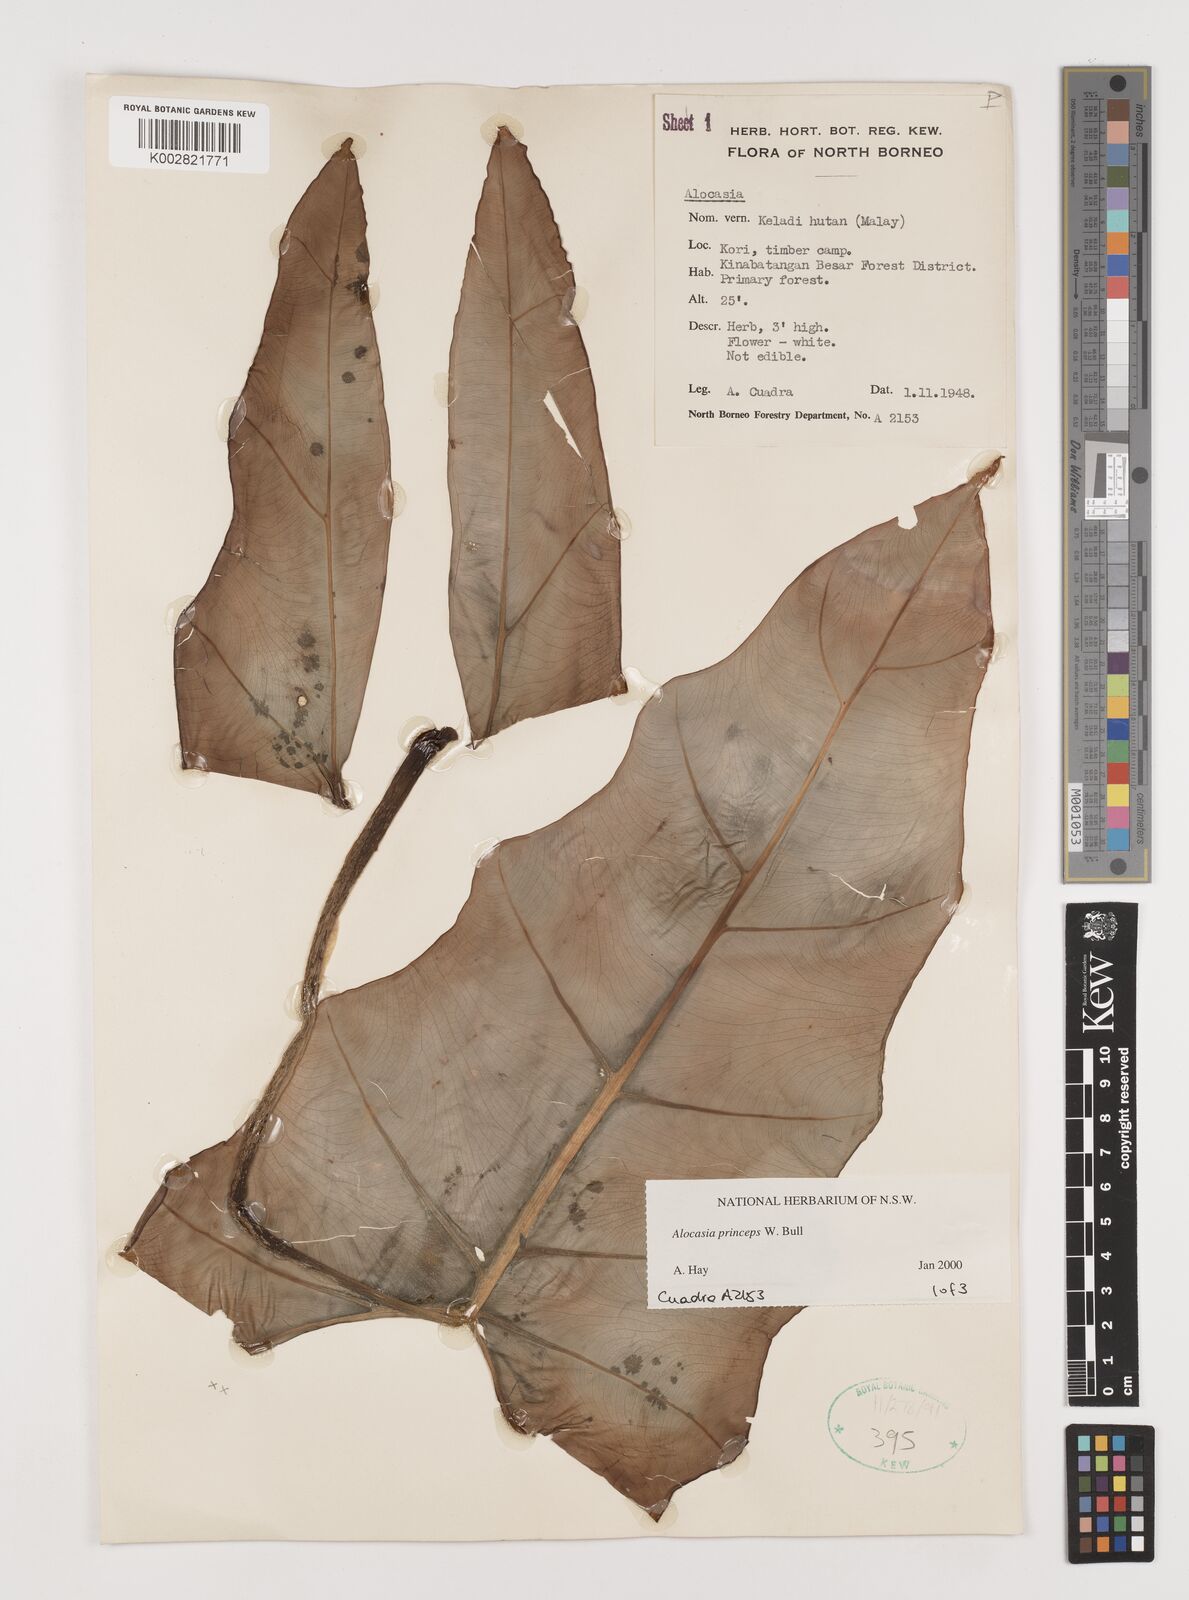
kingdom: Plantae
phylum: Tracheophyta
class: Liliopsida
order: Alismatales
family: Araceae
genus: Alocasia
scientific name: Alocasia princeps
